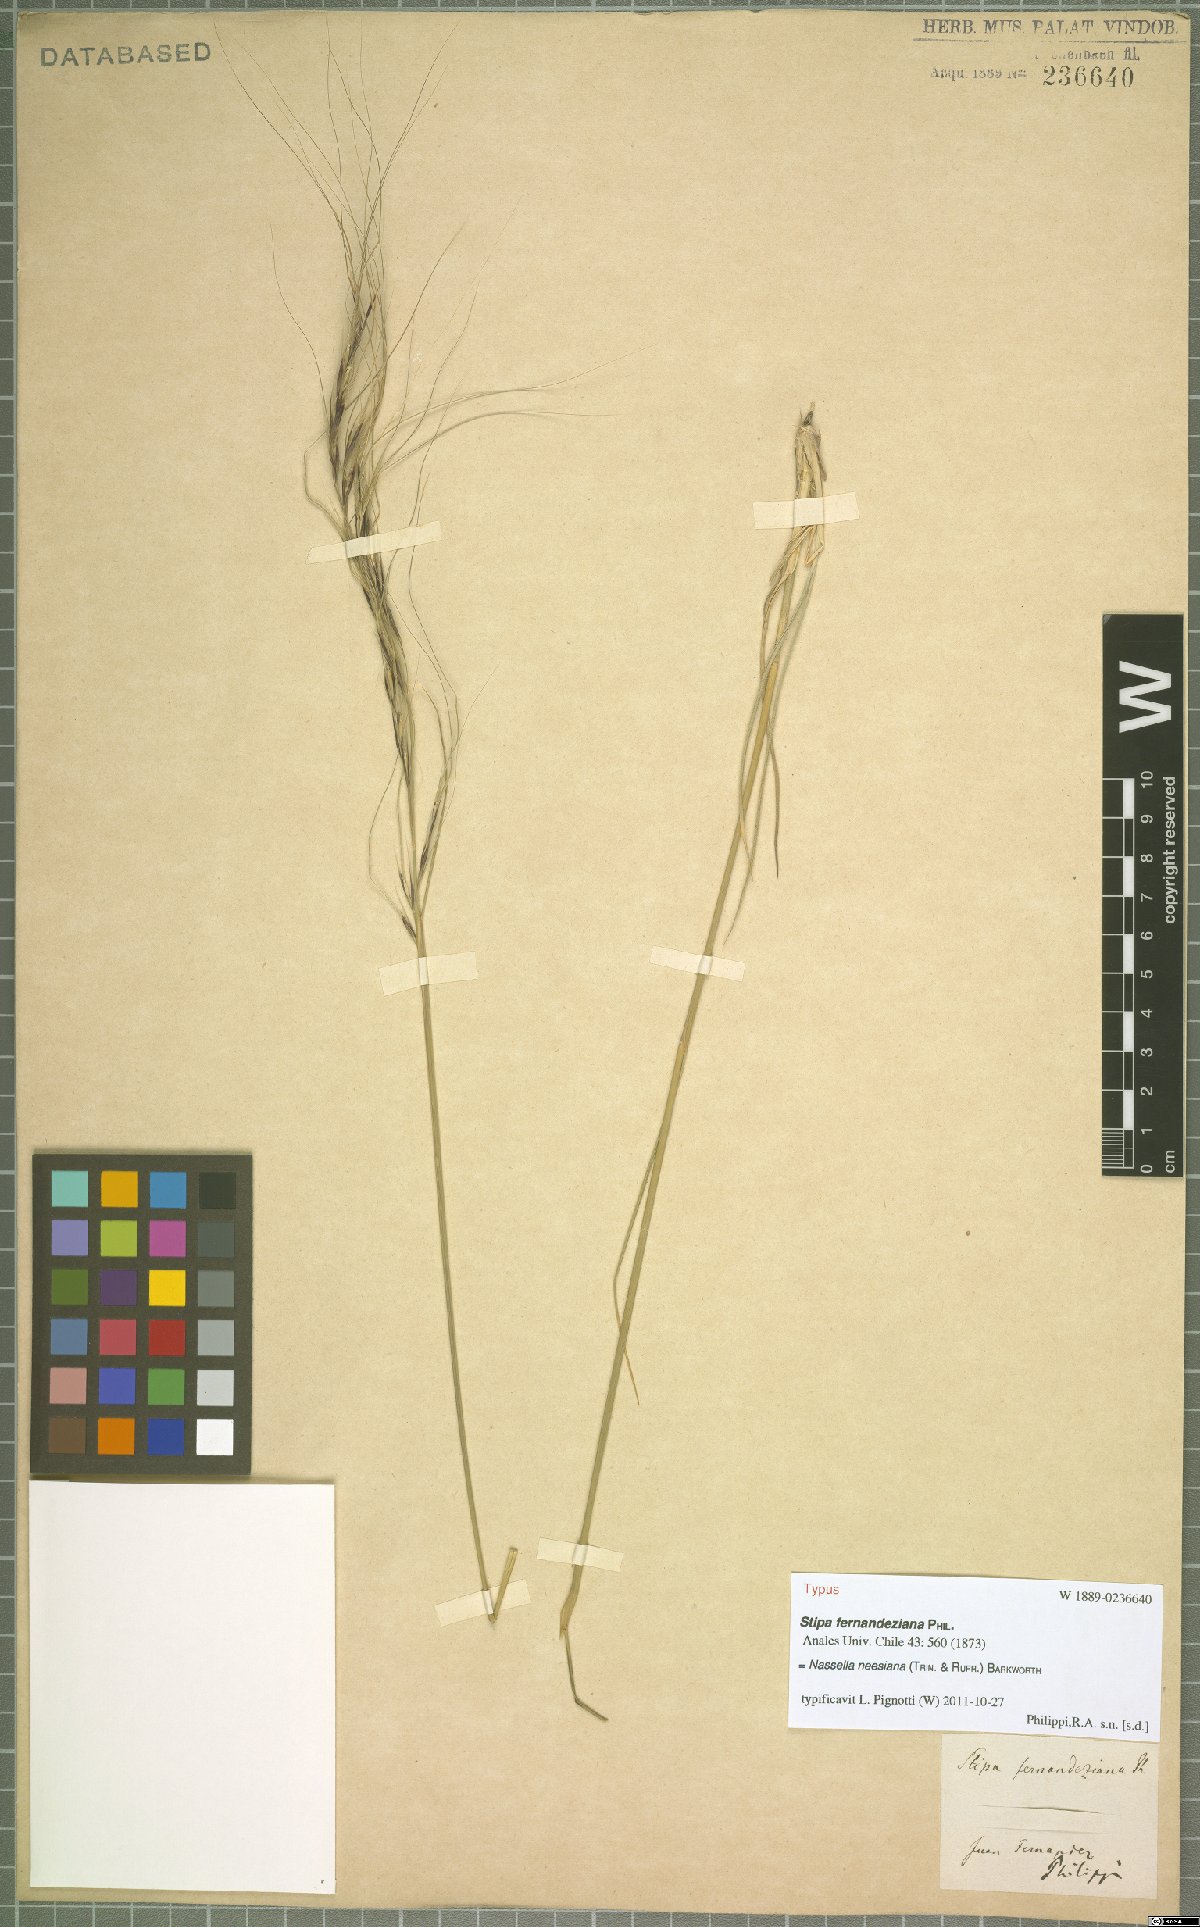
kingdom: Plantae
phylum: Tracheophyta
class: Liliopsida
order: Poales
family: Poaceae
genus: Nassella
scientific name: Nassella neesiana
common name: American needle-grass
